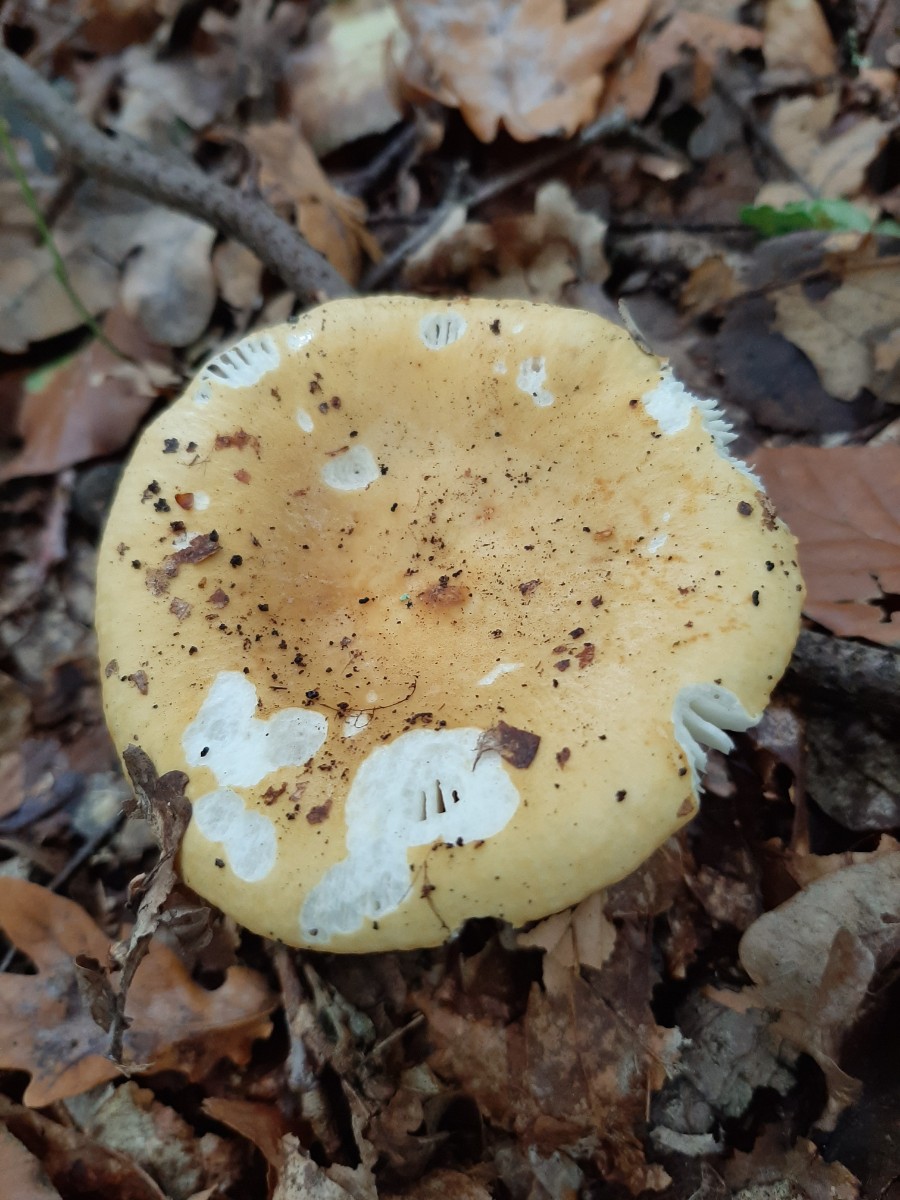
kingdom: Fungi
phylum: Basidiomycota
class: Agaricomycetes
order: Russulales
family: Russulaceae
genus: Russula
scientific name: Russula ochroleuca
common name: okkergul skørhat
